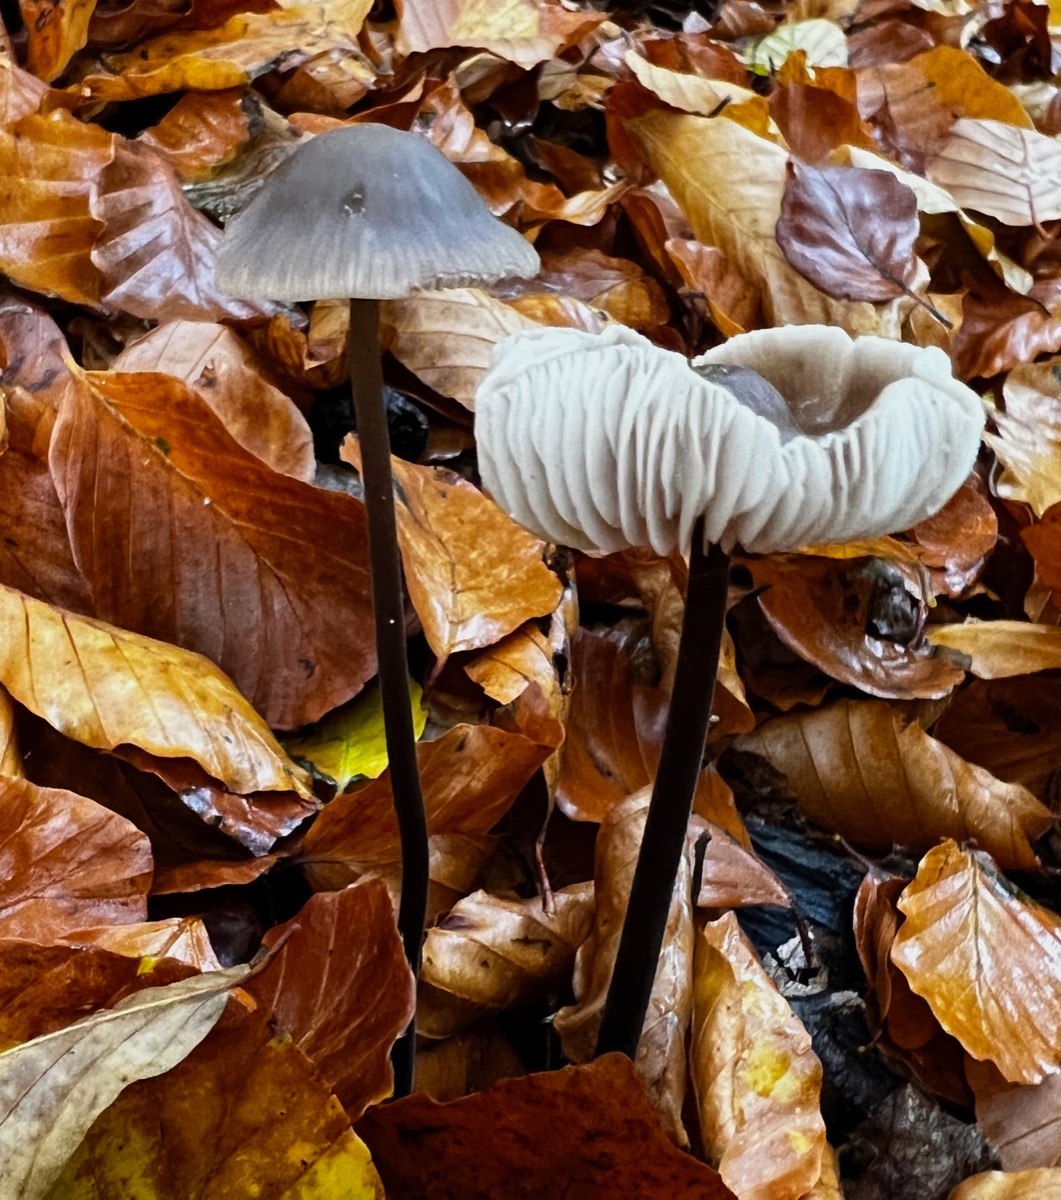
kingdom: Fungi
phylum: Basidiomycota
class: Agaricomycetes
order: Agaricales
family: Omphalotaceae
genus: Mycetinis
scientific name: Mycetinis alliaceus
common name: stor løghat
